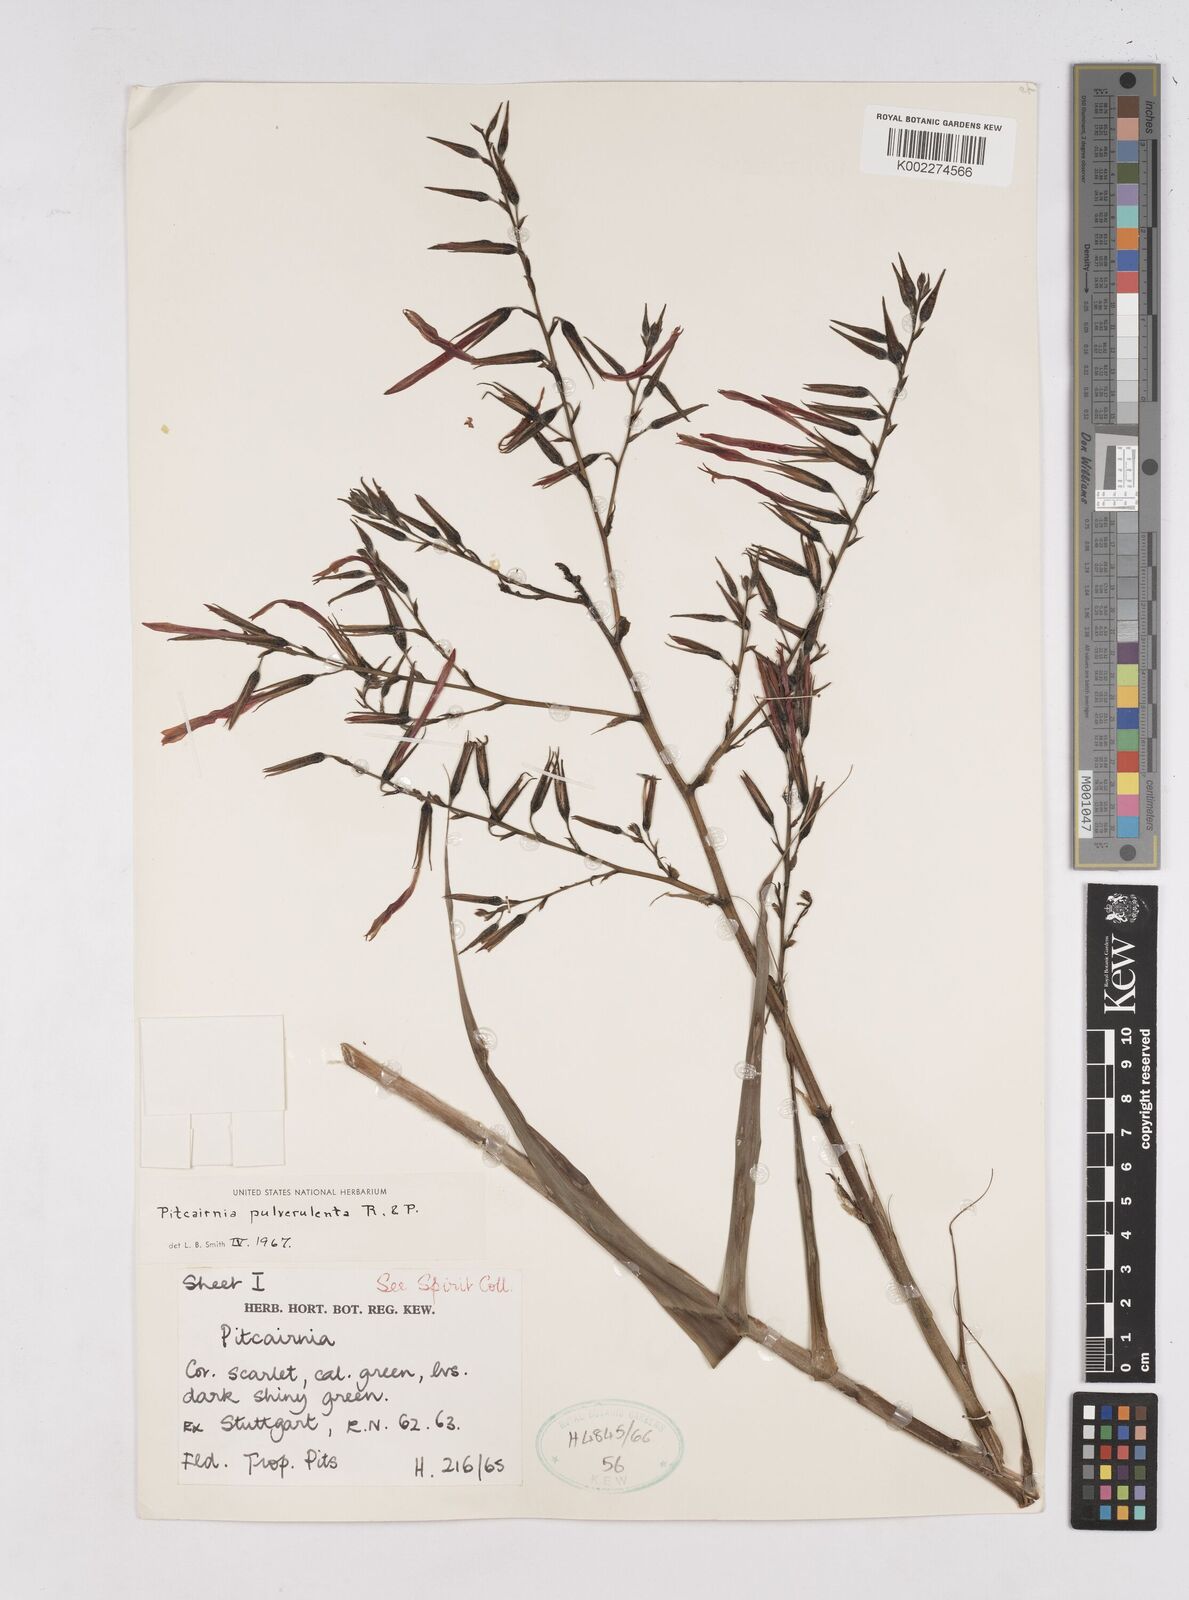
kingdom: Plantae
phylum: Tracheophyta
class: Liliopsida
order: Poales
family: Bromeliaceae
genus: Pitcairnia
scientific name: Pitcairnia pulverulenta
